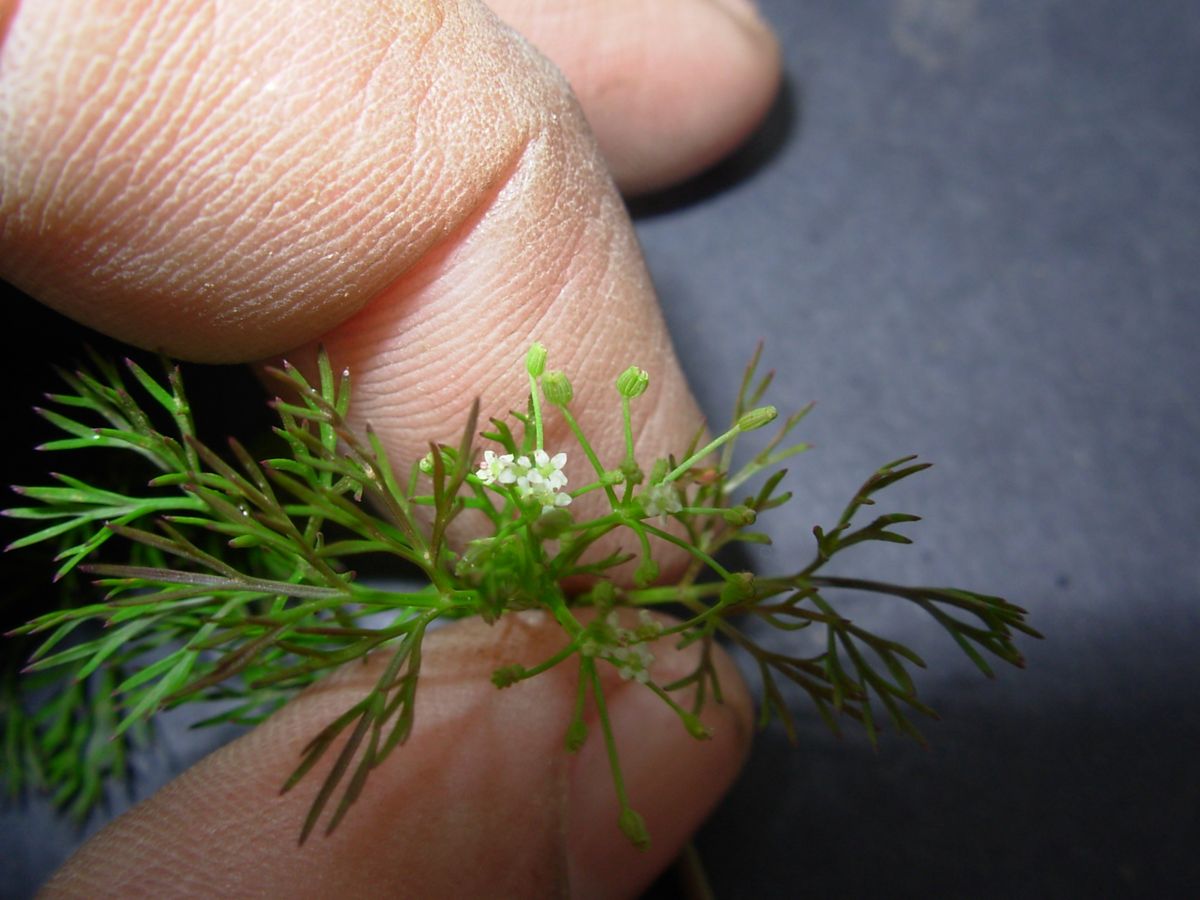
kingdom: Plantae
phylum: Tracheophyta
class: Magnoliopsida
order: Apiales
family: Apiaceae
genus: Cyclospermum
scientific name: Cyclospermum leptophyllum
